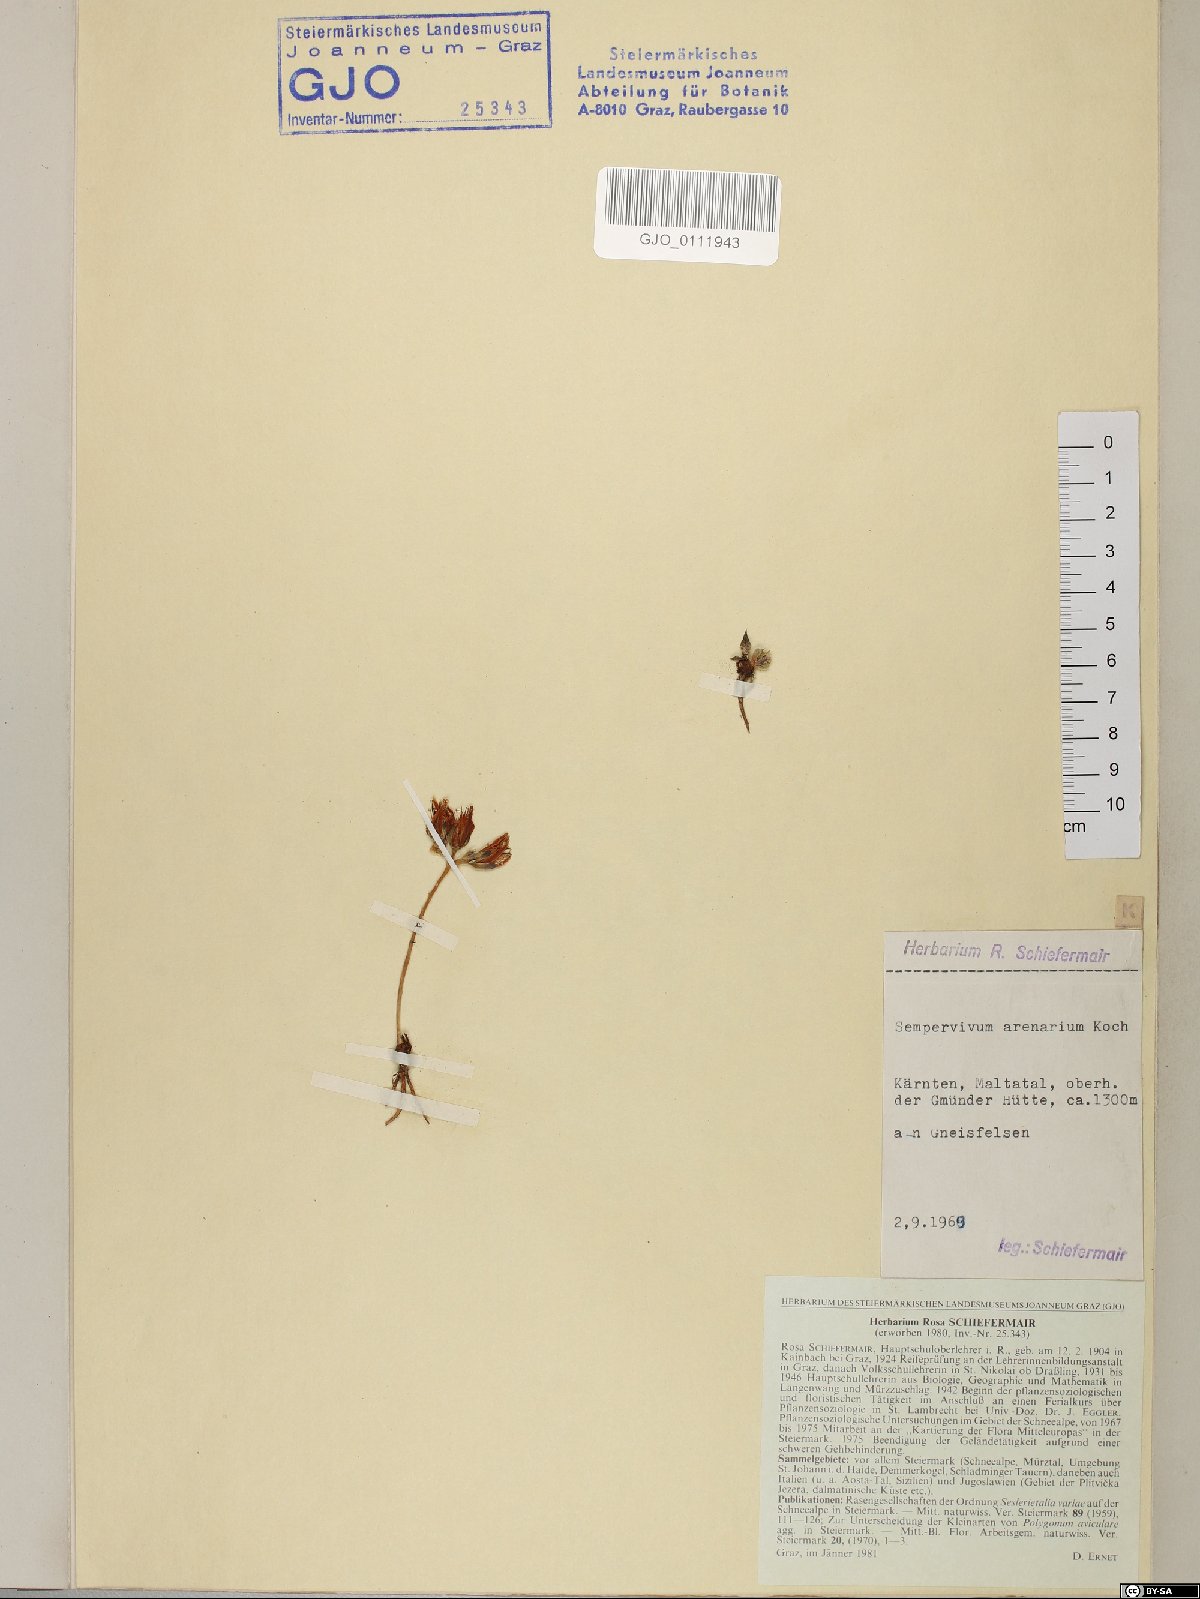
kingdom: Plantae
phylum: Tracheophyta
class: Magnoliopsida
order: Saxifragales
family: Crassulaceae
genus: Sempervivum
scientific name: Sempervivum globiferum
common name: Rolling hen-and-chicks
